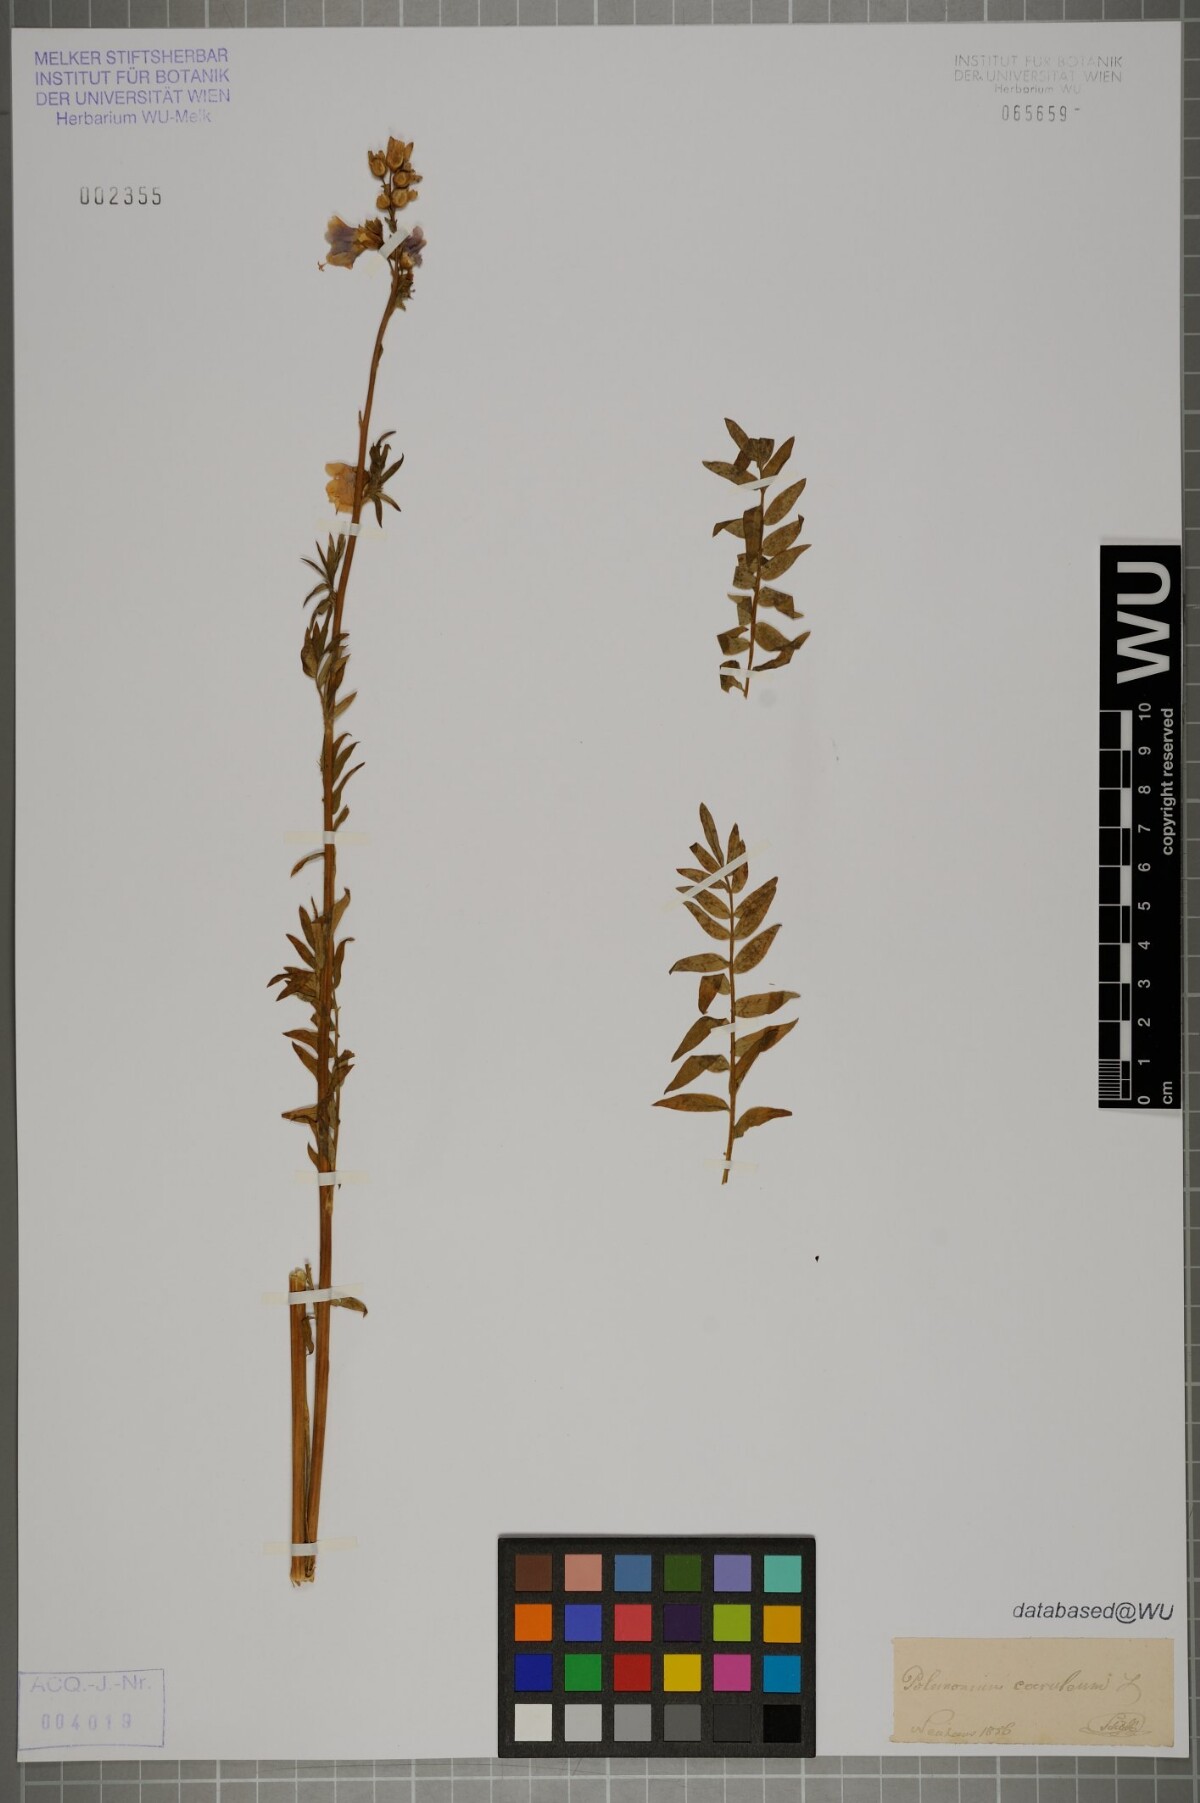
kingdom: Plantae
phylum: Tracheophyta
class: Magnoliopsida
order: Ericales
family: Polemoniaceae
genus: Polemonium
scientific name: Polemonium caeruleum
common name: Jacob's-ladder
